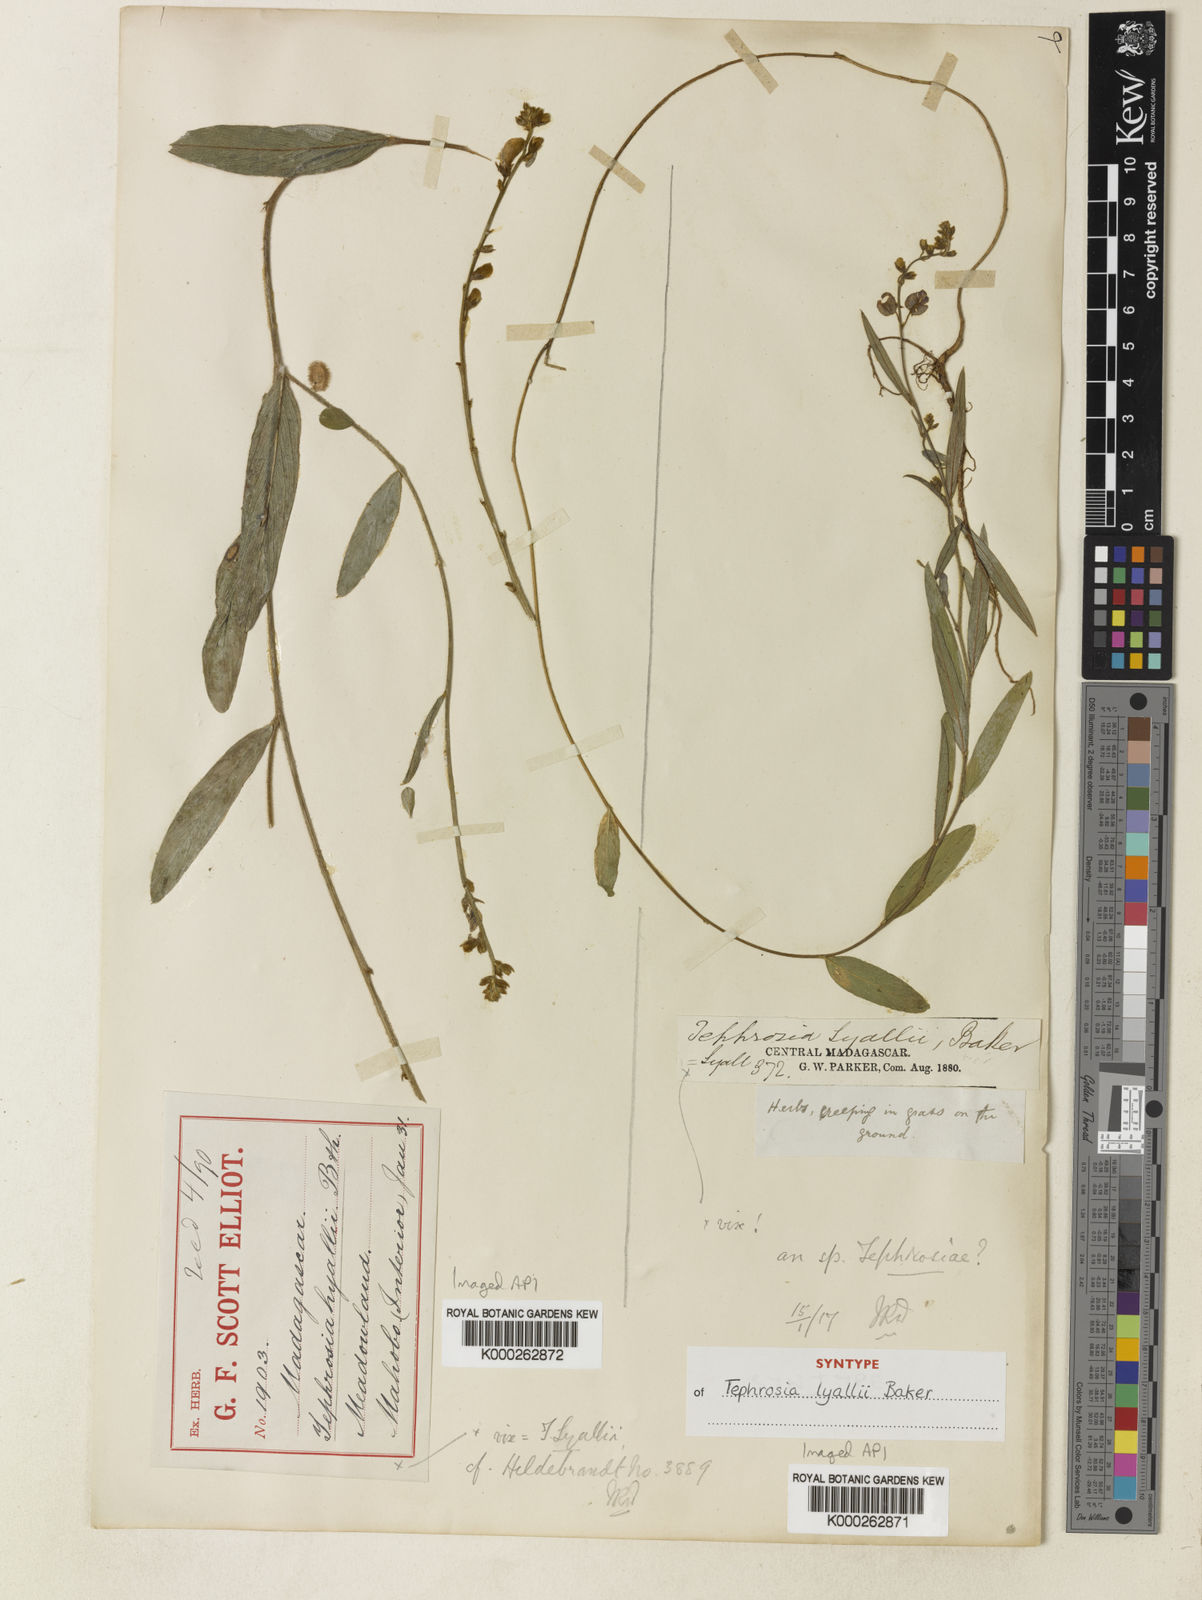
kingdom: Plantae
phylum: Tracheophyta
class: Magnoliopsida
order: Fabales
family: Fabaceae
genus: Tephrosia
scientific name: Tephrosia
